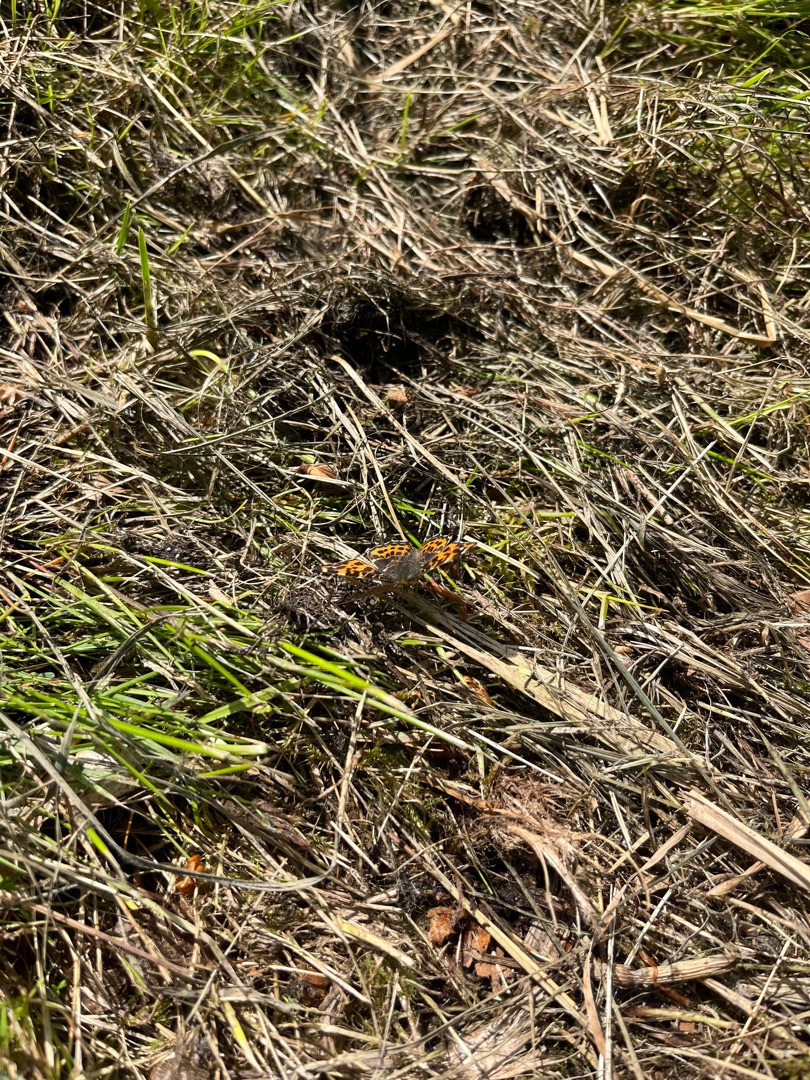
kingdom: Animalia
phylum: Arthropoda
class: Insecta
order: Lepidoptera
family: Nymphalidae
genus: Araschnia
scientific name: Araschnia levana
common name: Nældesommerfugl
